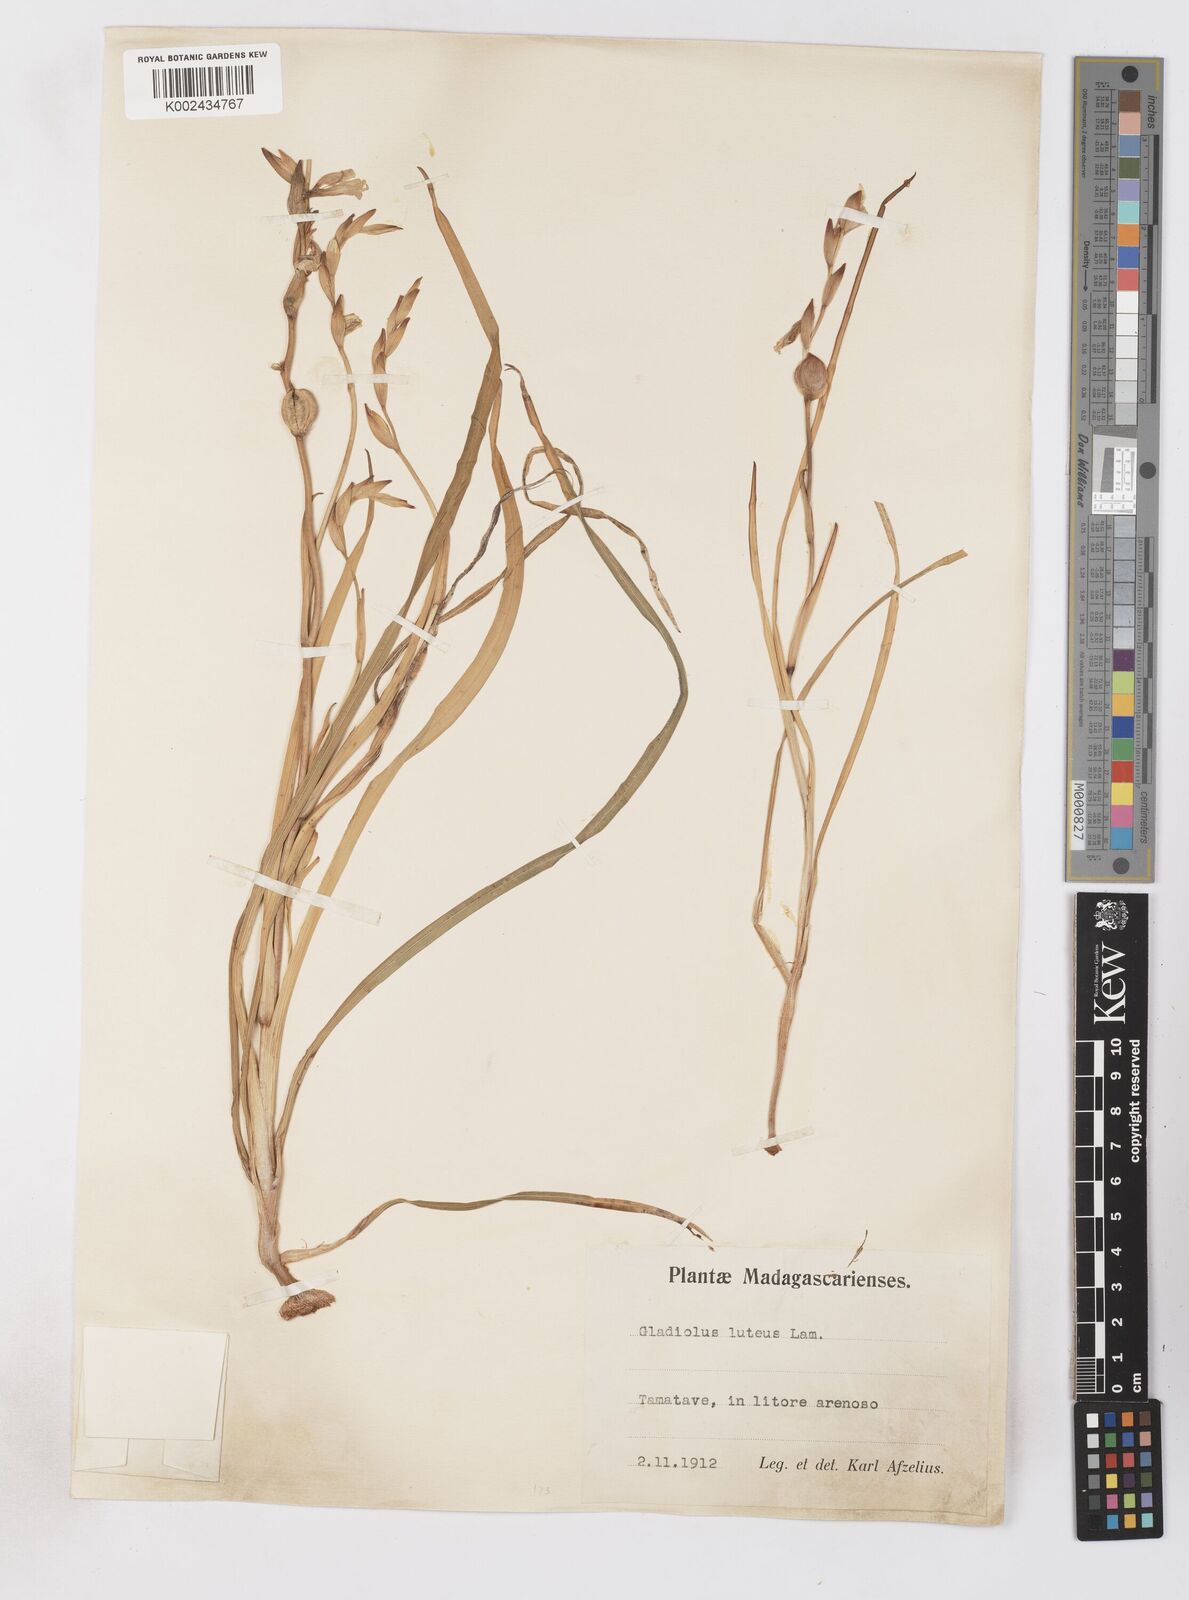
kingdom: Plantae
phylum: Tracheophyta
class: Liliopsida
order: Asparagales
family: Iridaceae
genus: Gladiolus
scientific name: Gladiolus luteus
